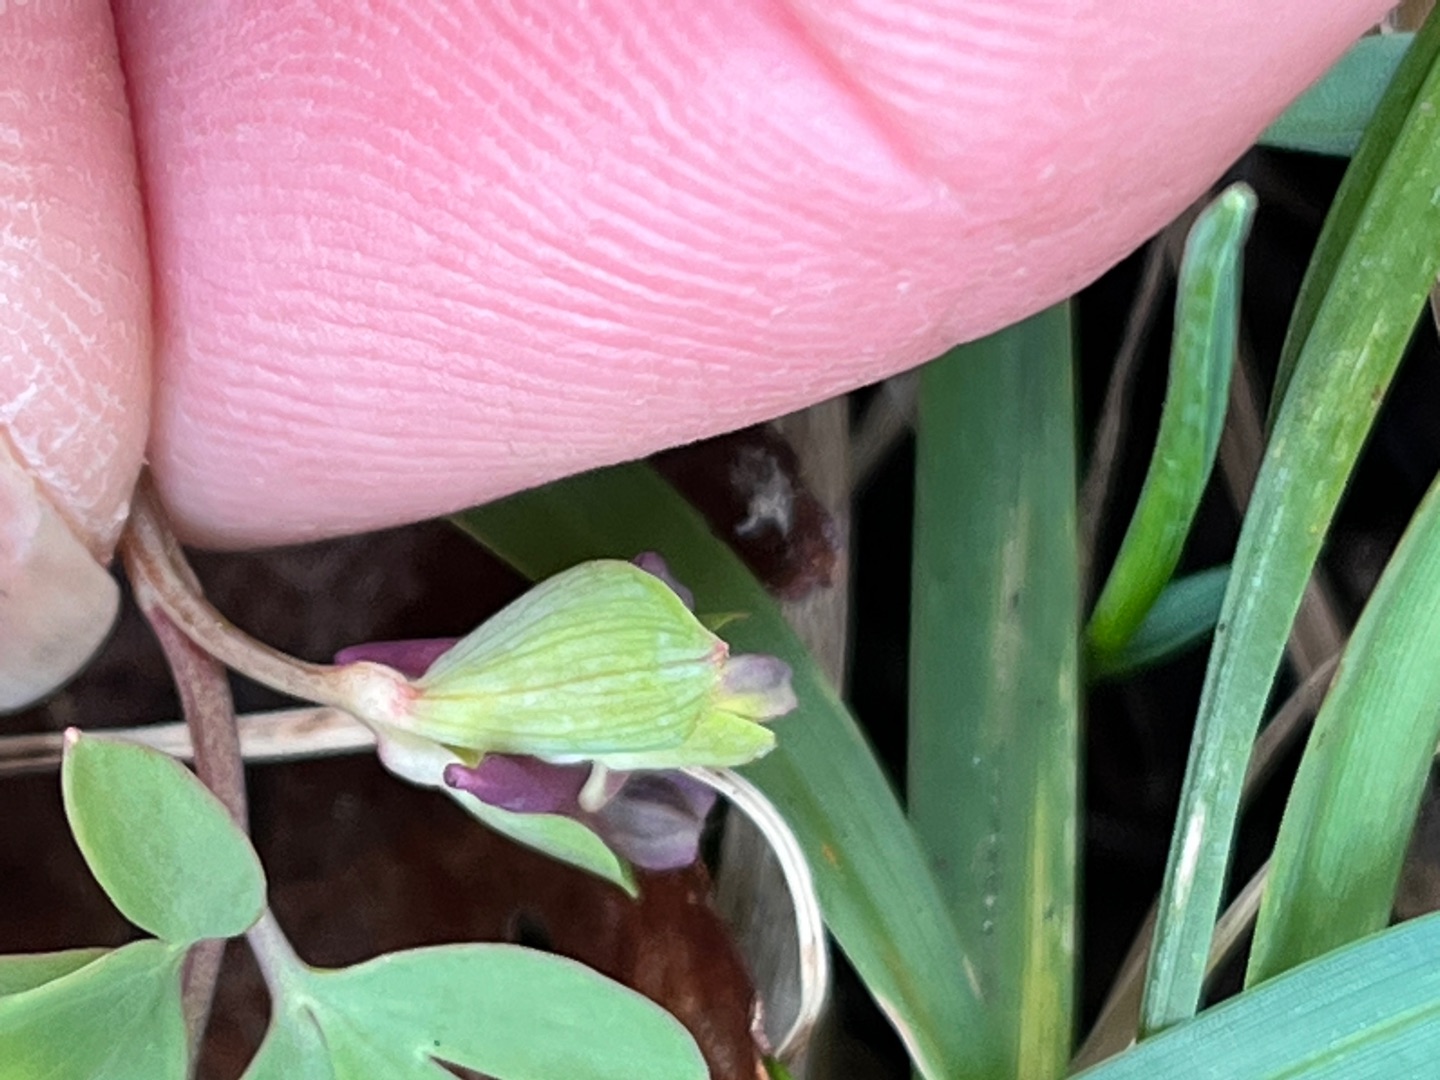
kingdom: Plantae
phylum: Tracheophyta
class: Magnoliopsida
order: Ranunculales
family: Papaveraceae
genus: Corydalis
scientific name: Corydalis intermedia
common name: Liden lærkespore
